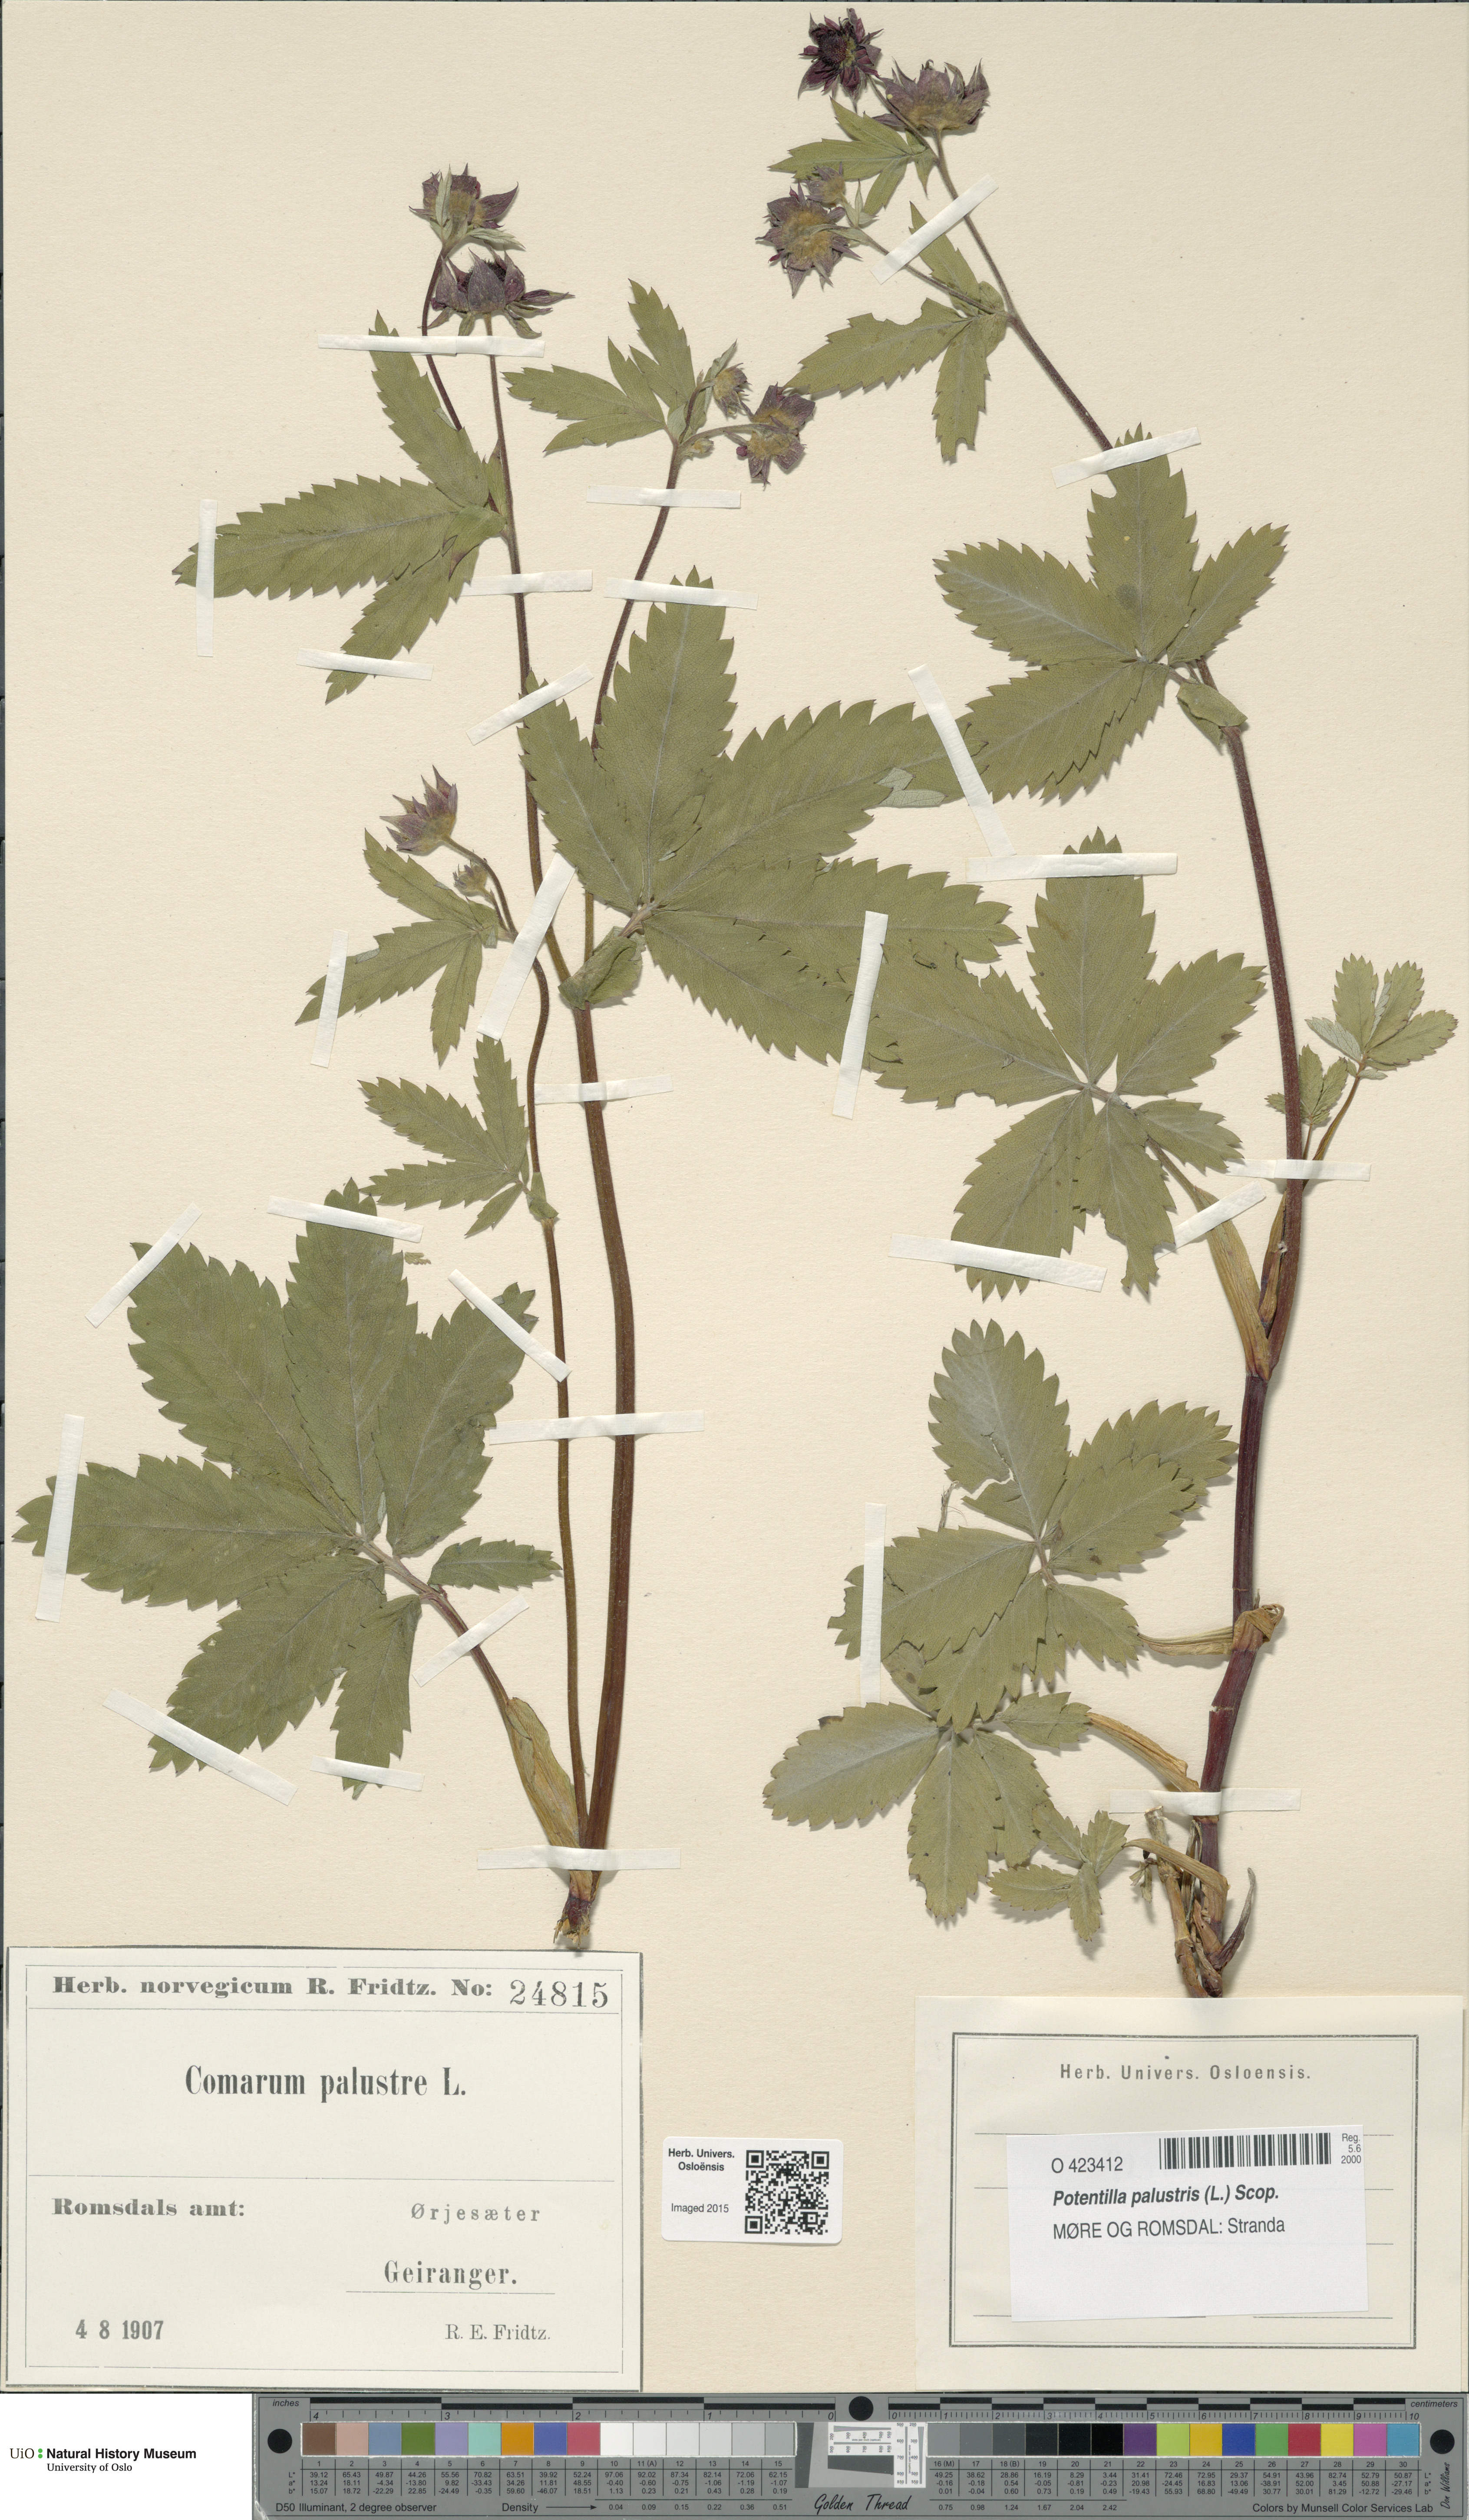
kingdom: Plantae
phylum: Tracheophyta
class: Magnoliopsida
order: Rosales
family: Rosaceae
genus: Comarum
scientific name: Comarum palustre
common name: Marsh cinquefoil
